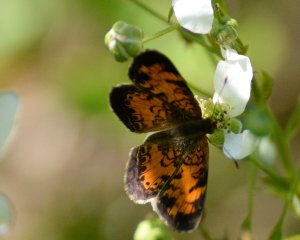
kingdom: Animalia
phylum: Arthropoda
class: Insecta
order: Lepidoptera
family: Nymphalidae
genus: Phyciodes
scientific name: Phyciodes tharos
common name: Northern Crescent
